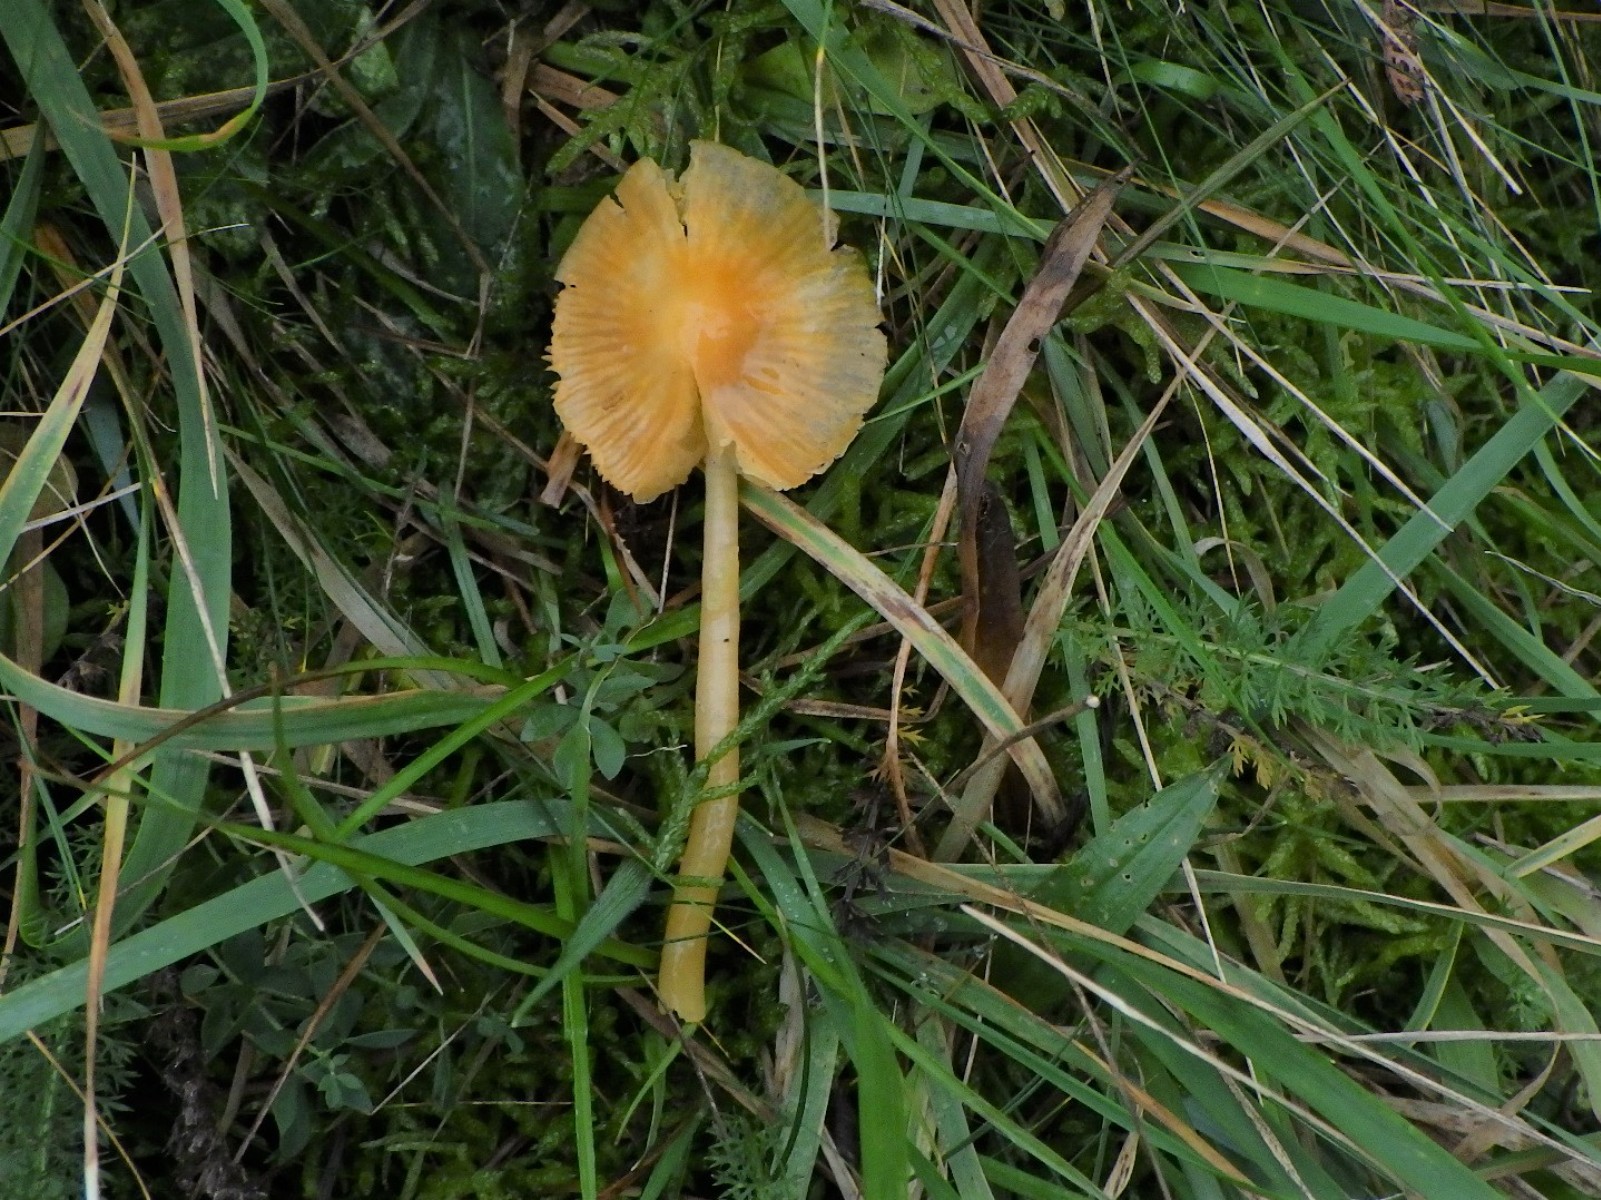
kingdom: Fungi
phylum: Basidiomycota
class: Agaricomycetes
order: Agaricales
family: Hygrophoraceae
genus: Gliophorus
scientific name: Gliophorus psittacinus
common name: papegøje-vokshat
